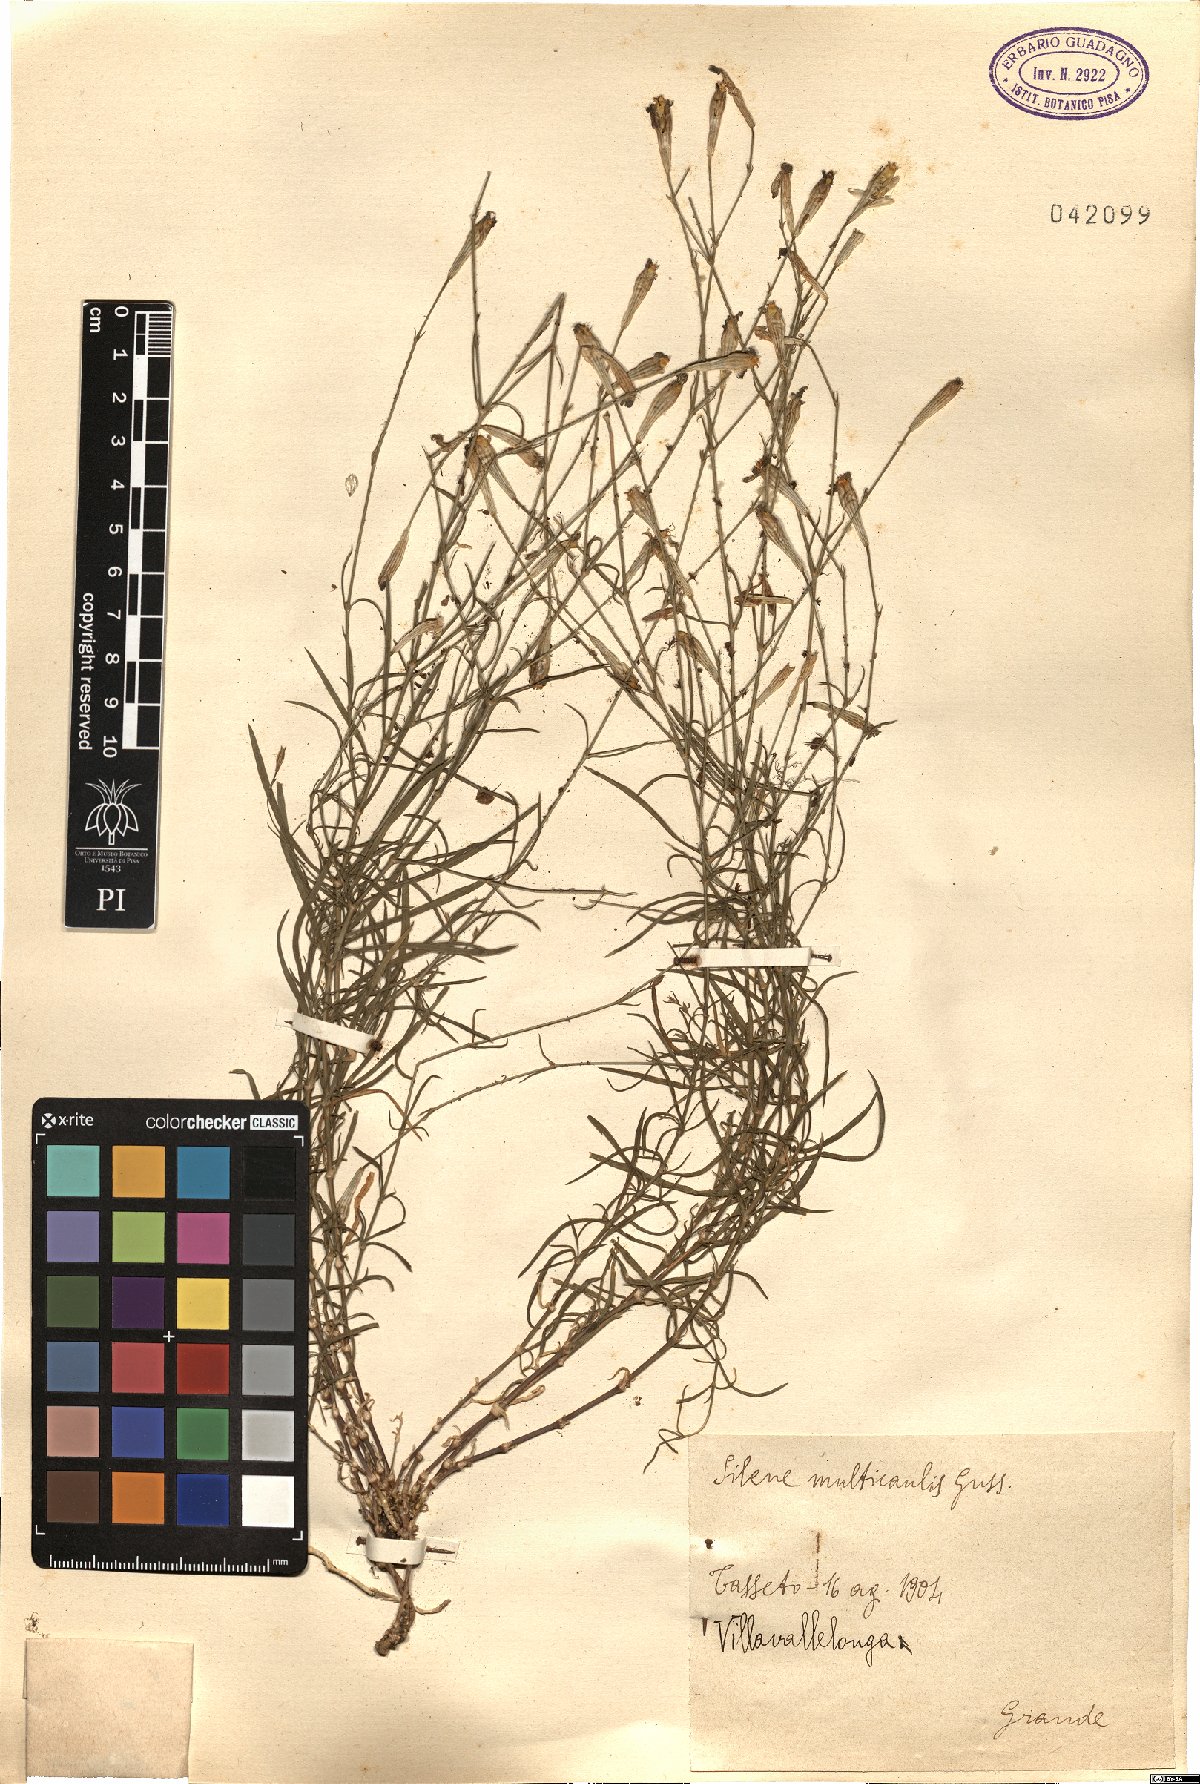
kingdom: Plantae
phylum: Tracheophyta
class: Magnoliopsida
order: Caryophyllales
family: Caryophyllaceae
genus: Silene
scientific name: Silene multicaulis
